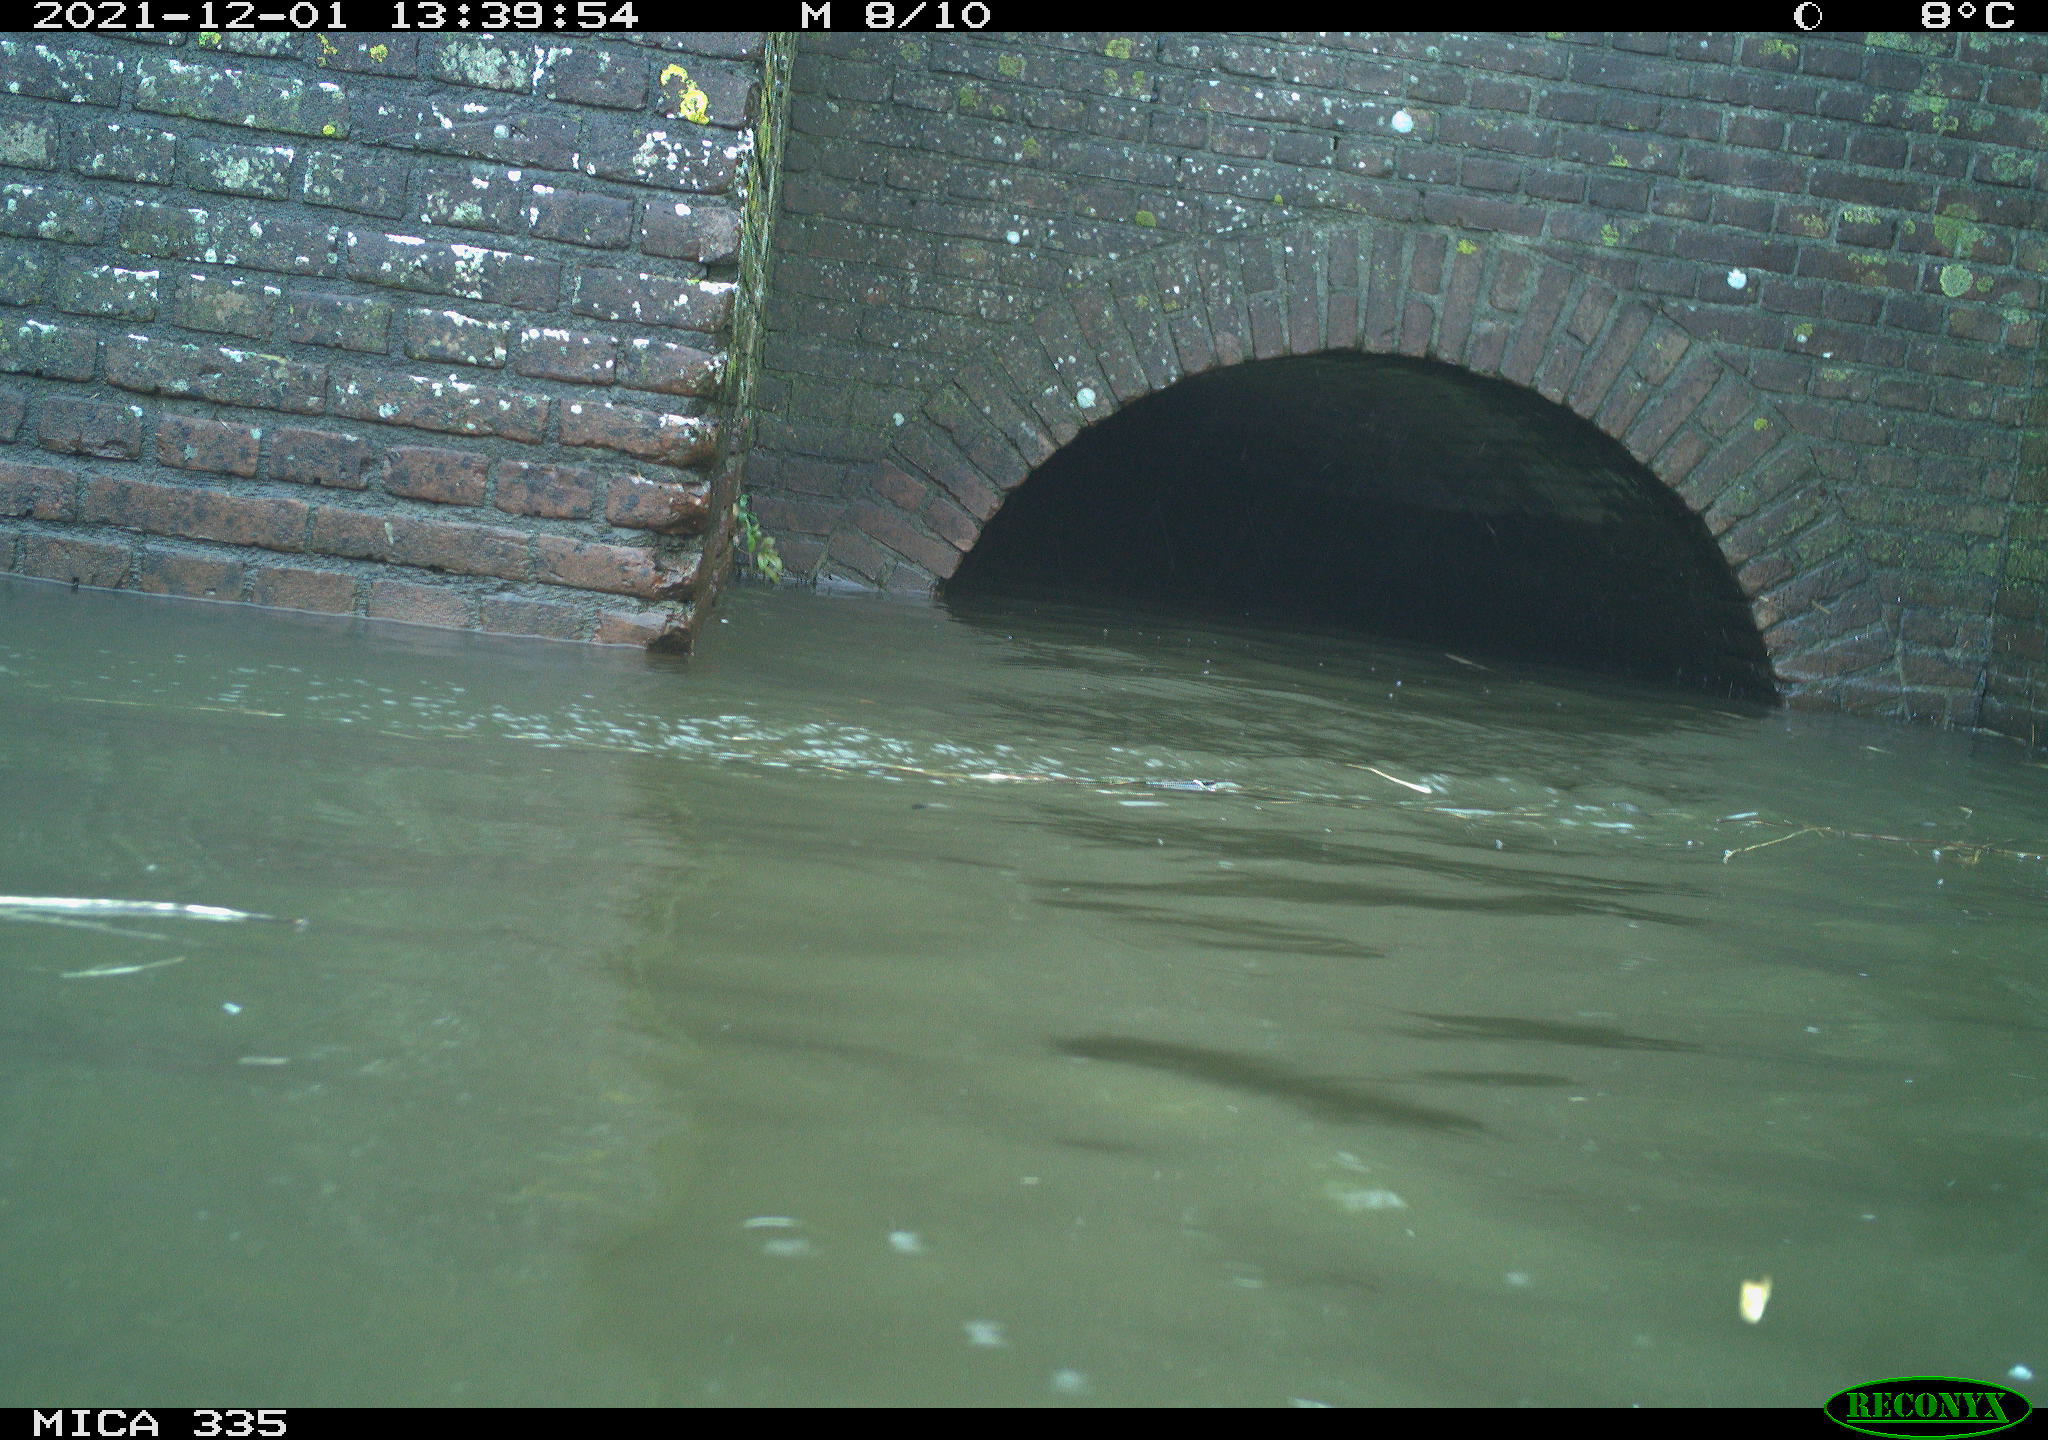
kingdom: Animalia
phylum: Chordata
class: Aves
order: Anseriformes
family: Anatidae
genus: Anas
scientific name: Anas platyrhynchos
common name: Mallard
